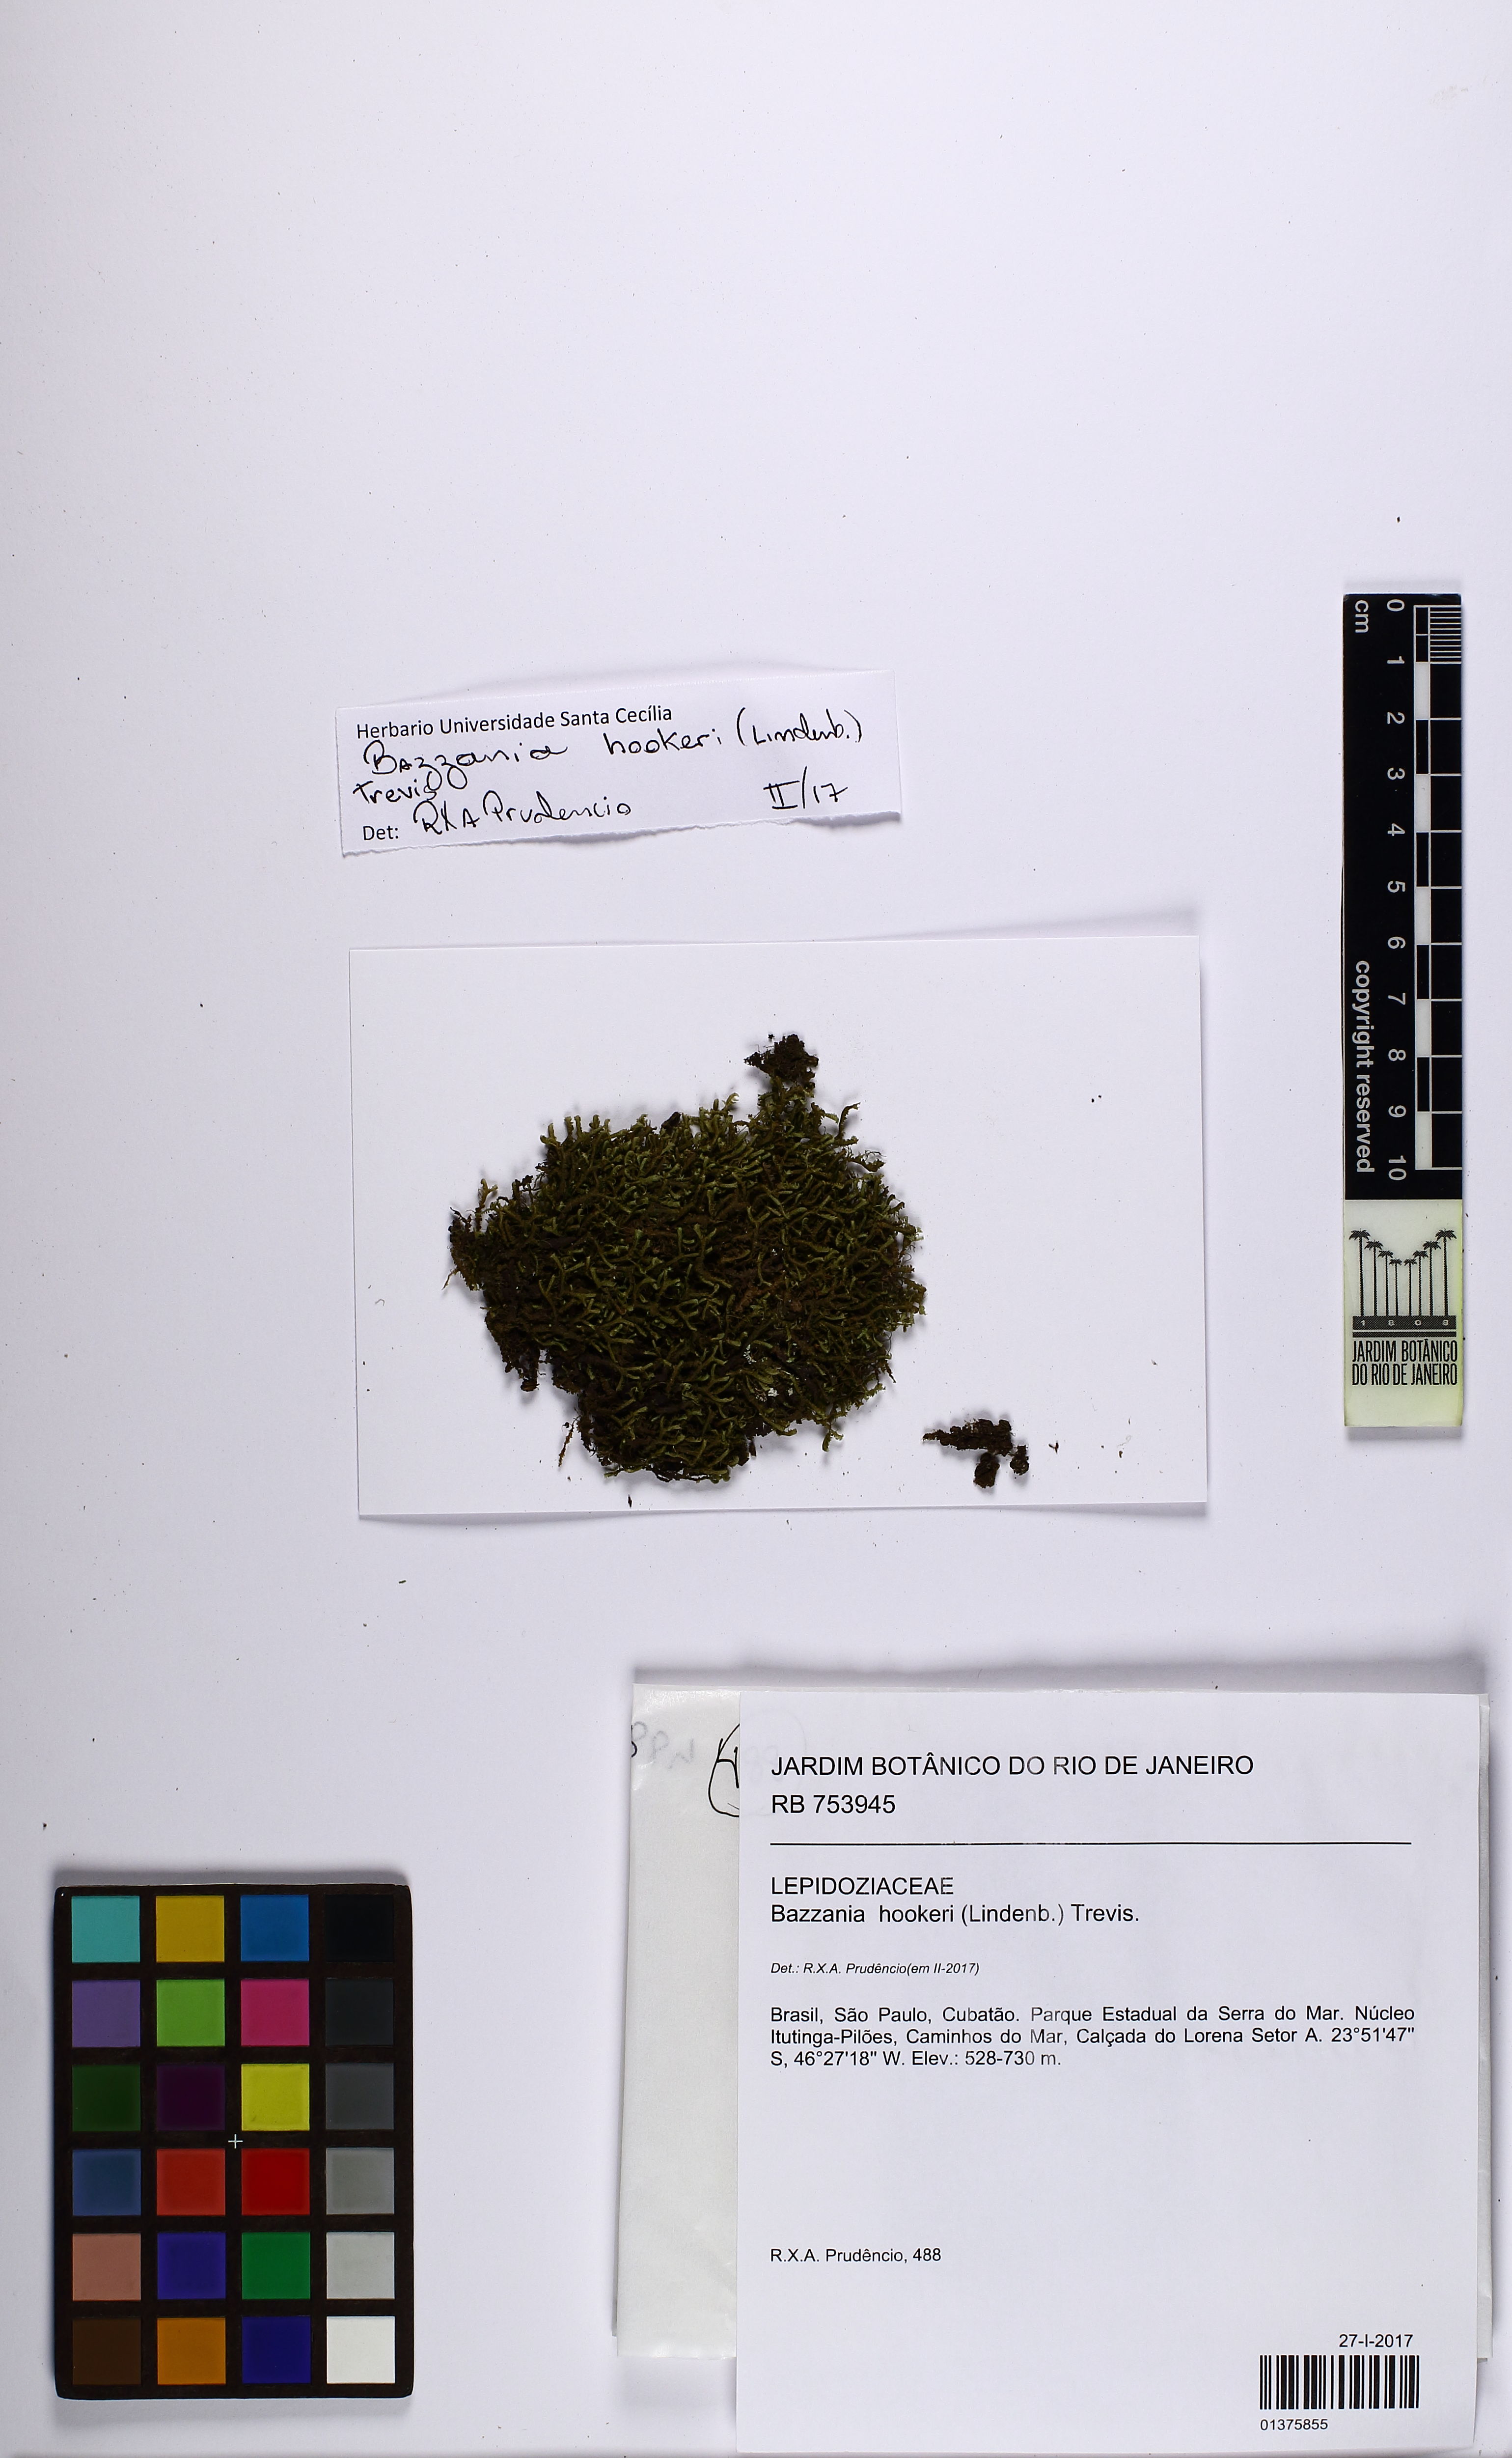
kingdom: Plantae
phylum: Marchantiophyta
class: Jungermanniopsida
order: Jungermanniales
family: Lepidoziaceae
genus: Bazzania
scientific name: Bazzania hookeri
